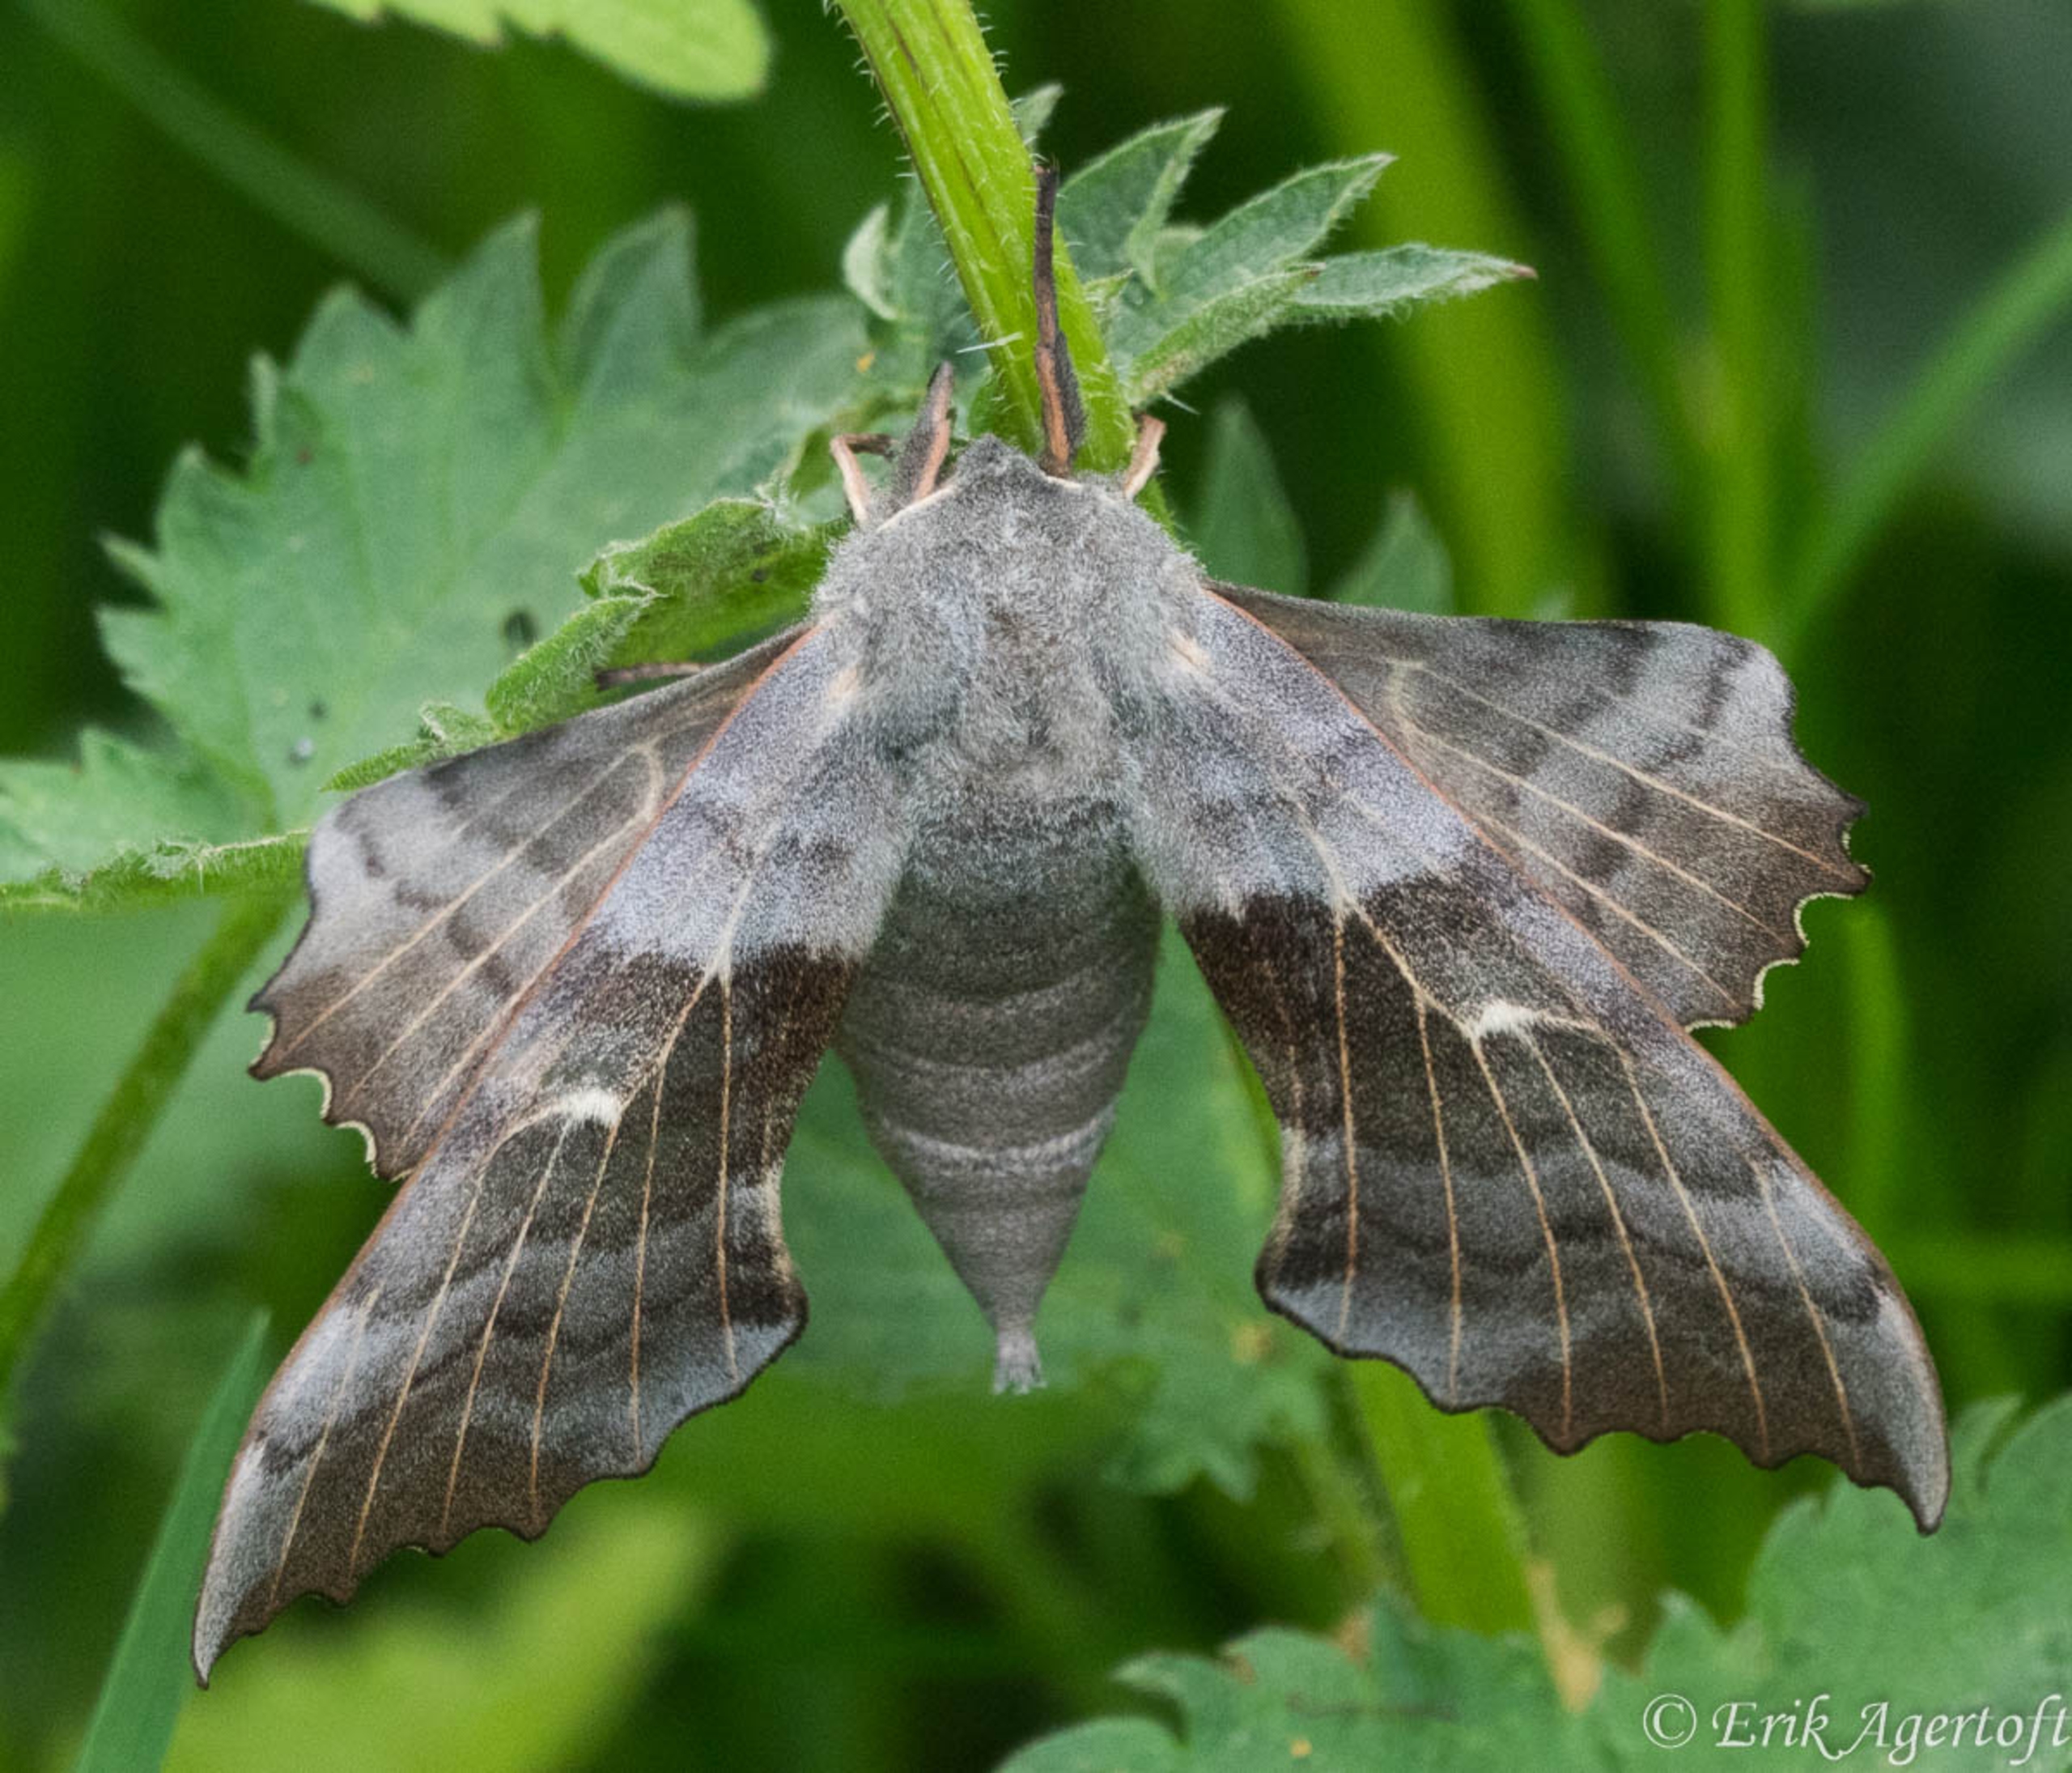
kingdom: Animalia
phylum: Arthropoda
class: Insecta
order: Lepidoptera
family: Sphingidae
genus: Laothoe
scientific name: Laothoe populi
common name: Poppelsværmer
